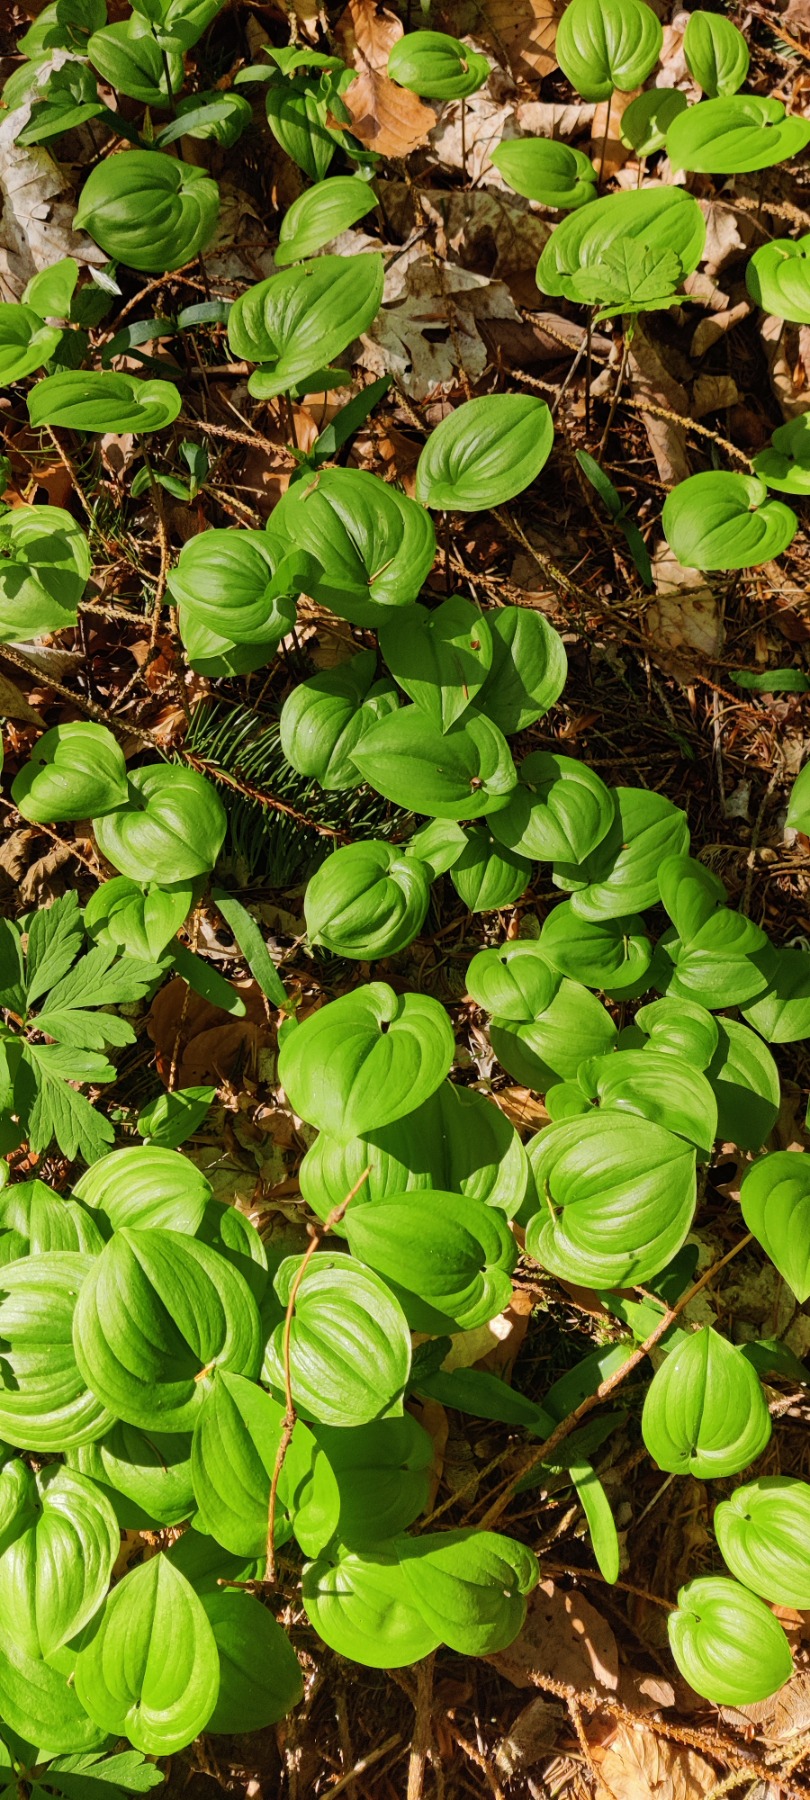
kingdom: Plantae
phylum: Tracheophyta
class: Liliopsida
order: Asparagales
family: Asparagaceae
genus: Maianthemum
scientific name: Maianthemum bifolium
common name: Majblomst
